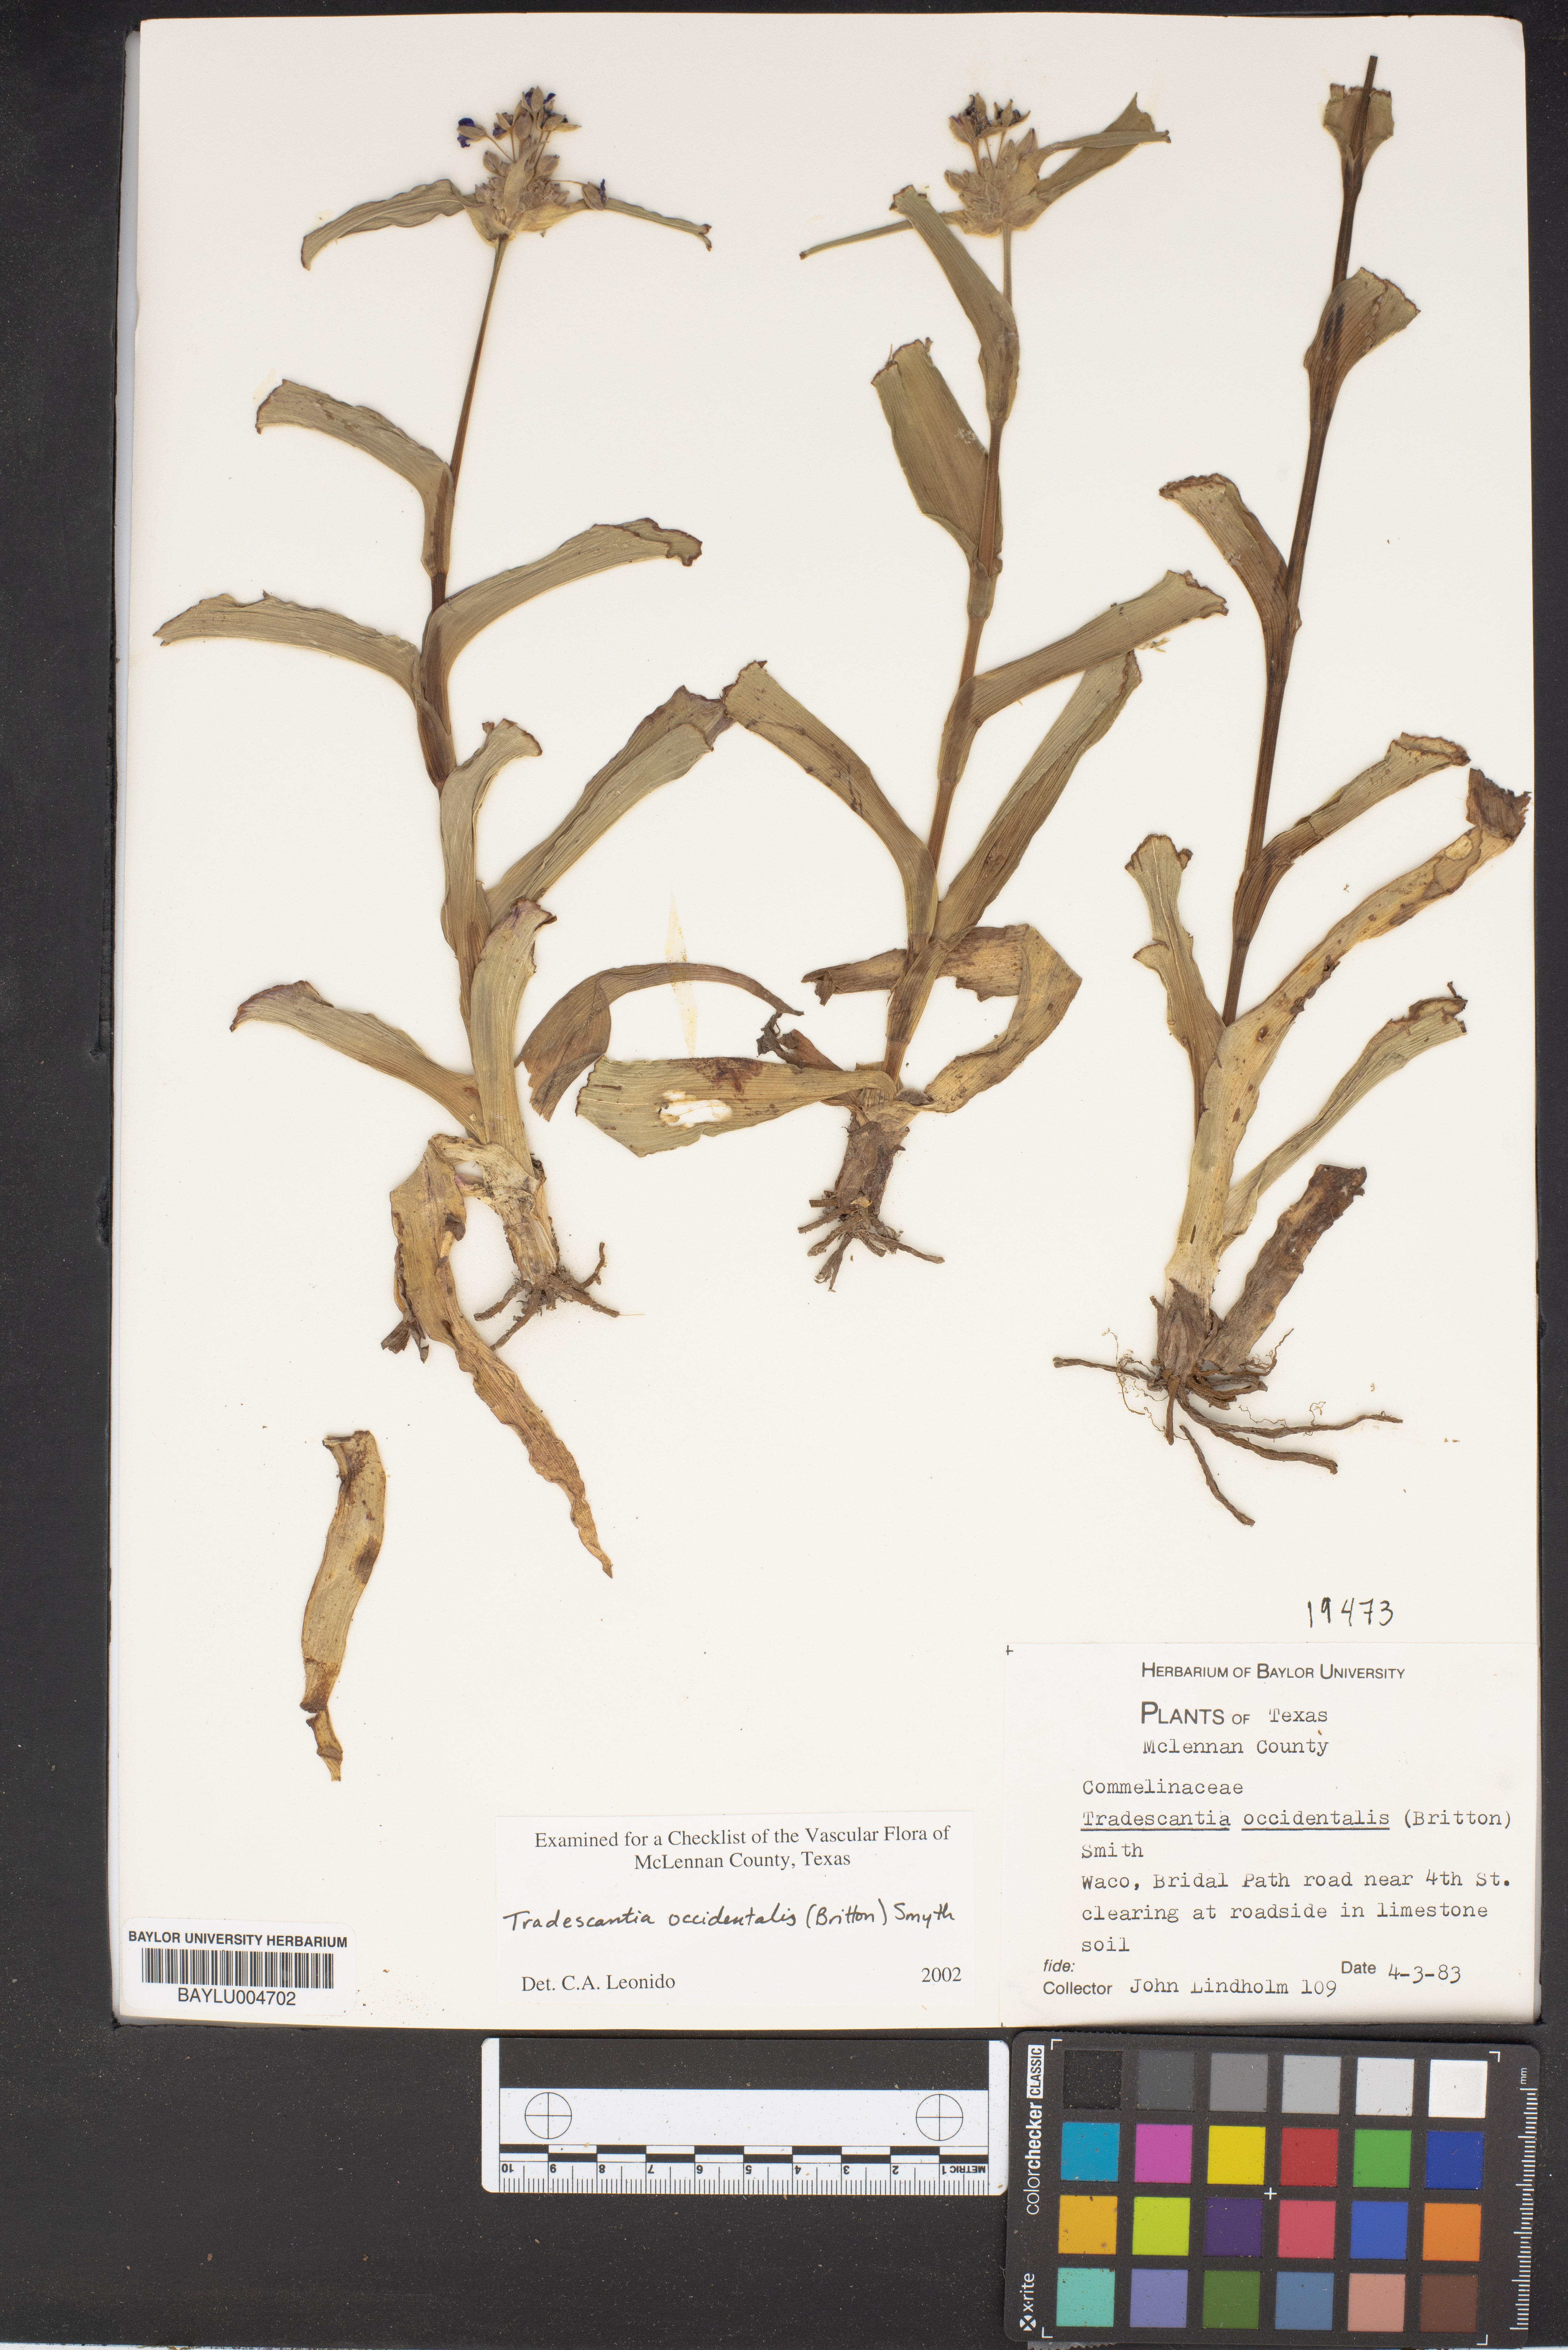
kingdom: Plantae
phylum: Tracheophyta
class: Liliopsida
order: Commelinales
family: Commelinaceae
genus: Tradescantia
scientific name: Tradescantia occidentalis
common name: Prairie spiderwort
